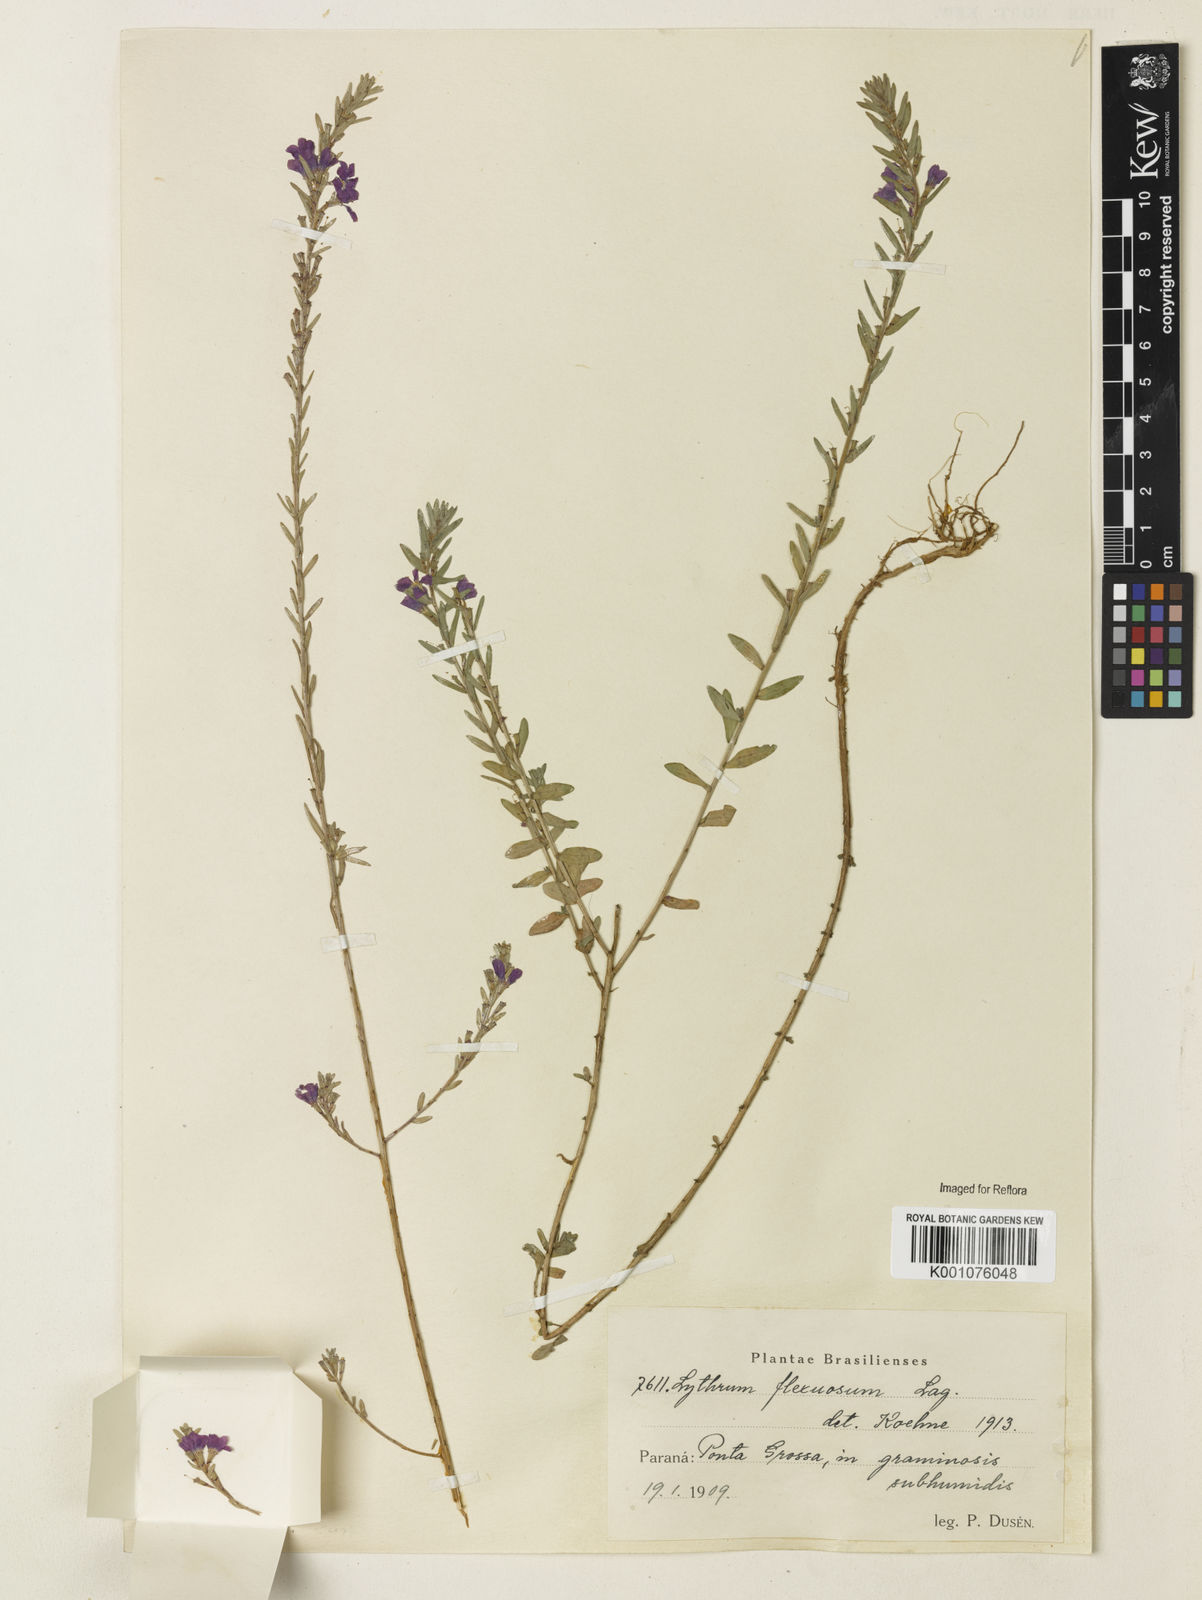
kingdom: Plantae
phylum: Tracheophyta
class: Magnoliopsida
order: Myrtales
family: Lythraceae
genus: Lythrum
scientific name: Lythrum flexuosum
